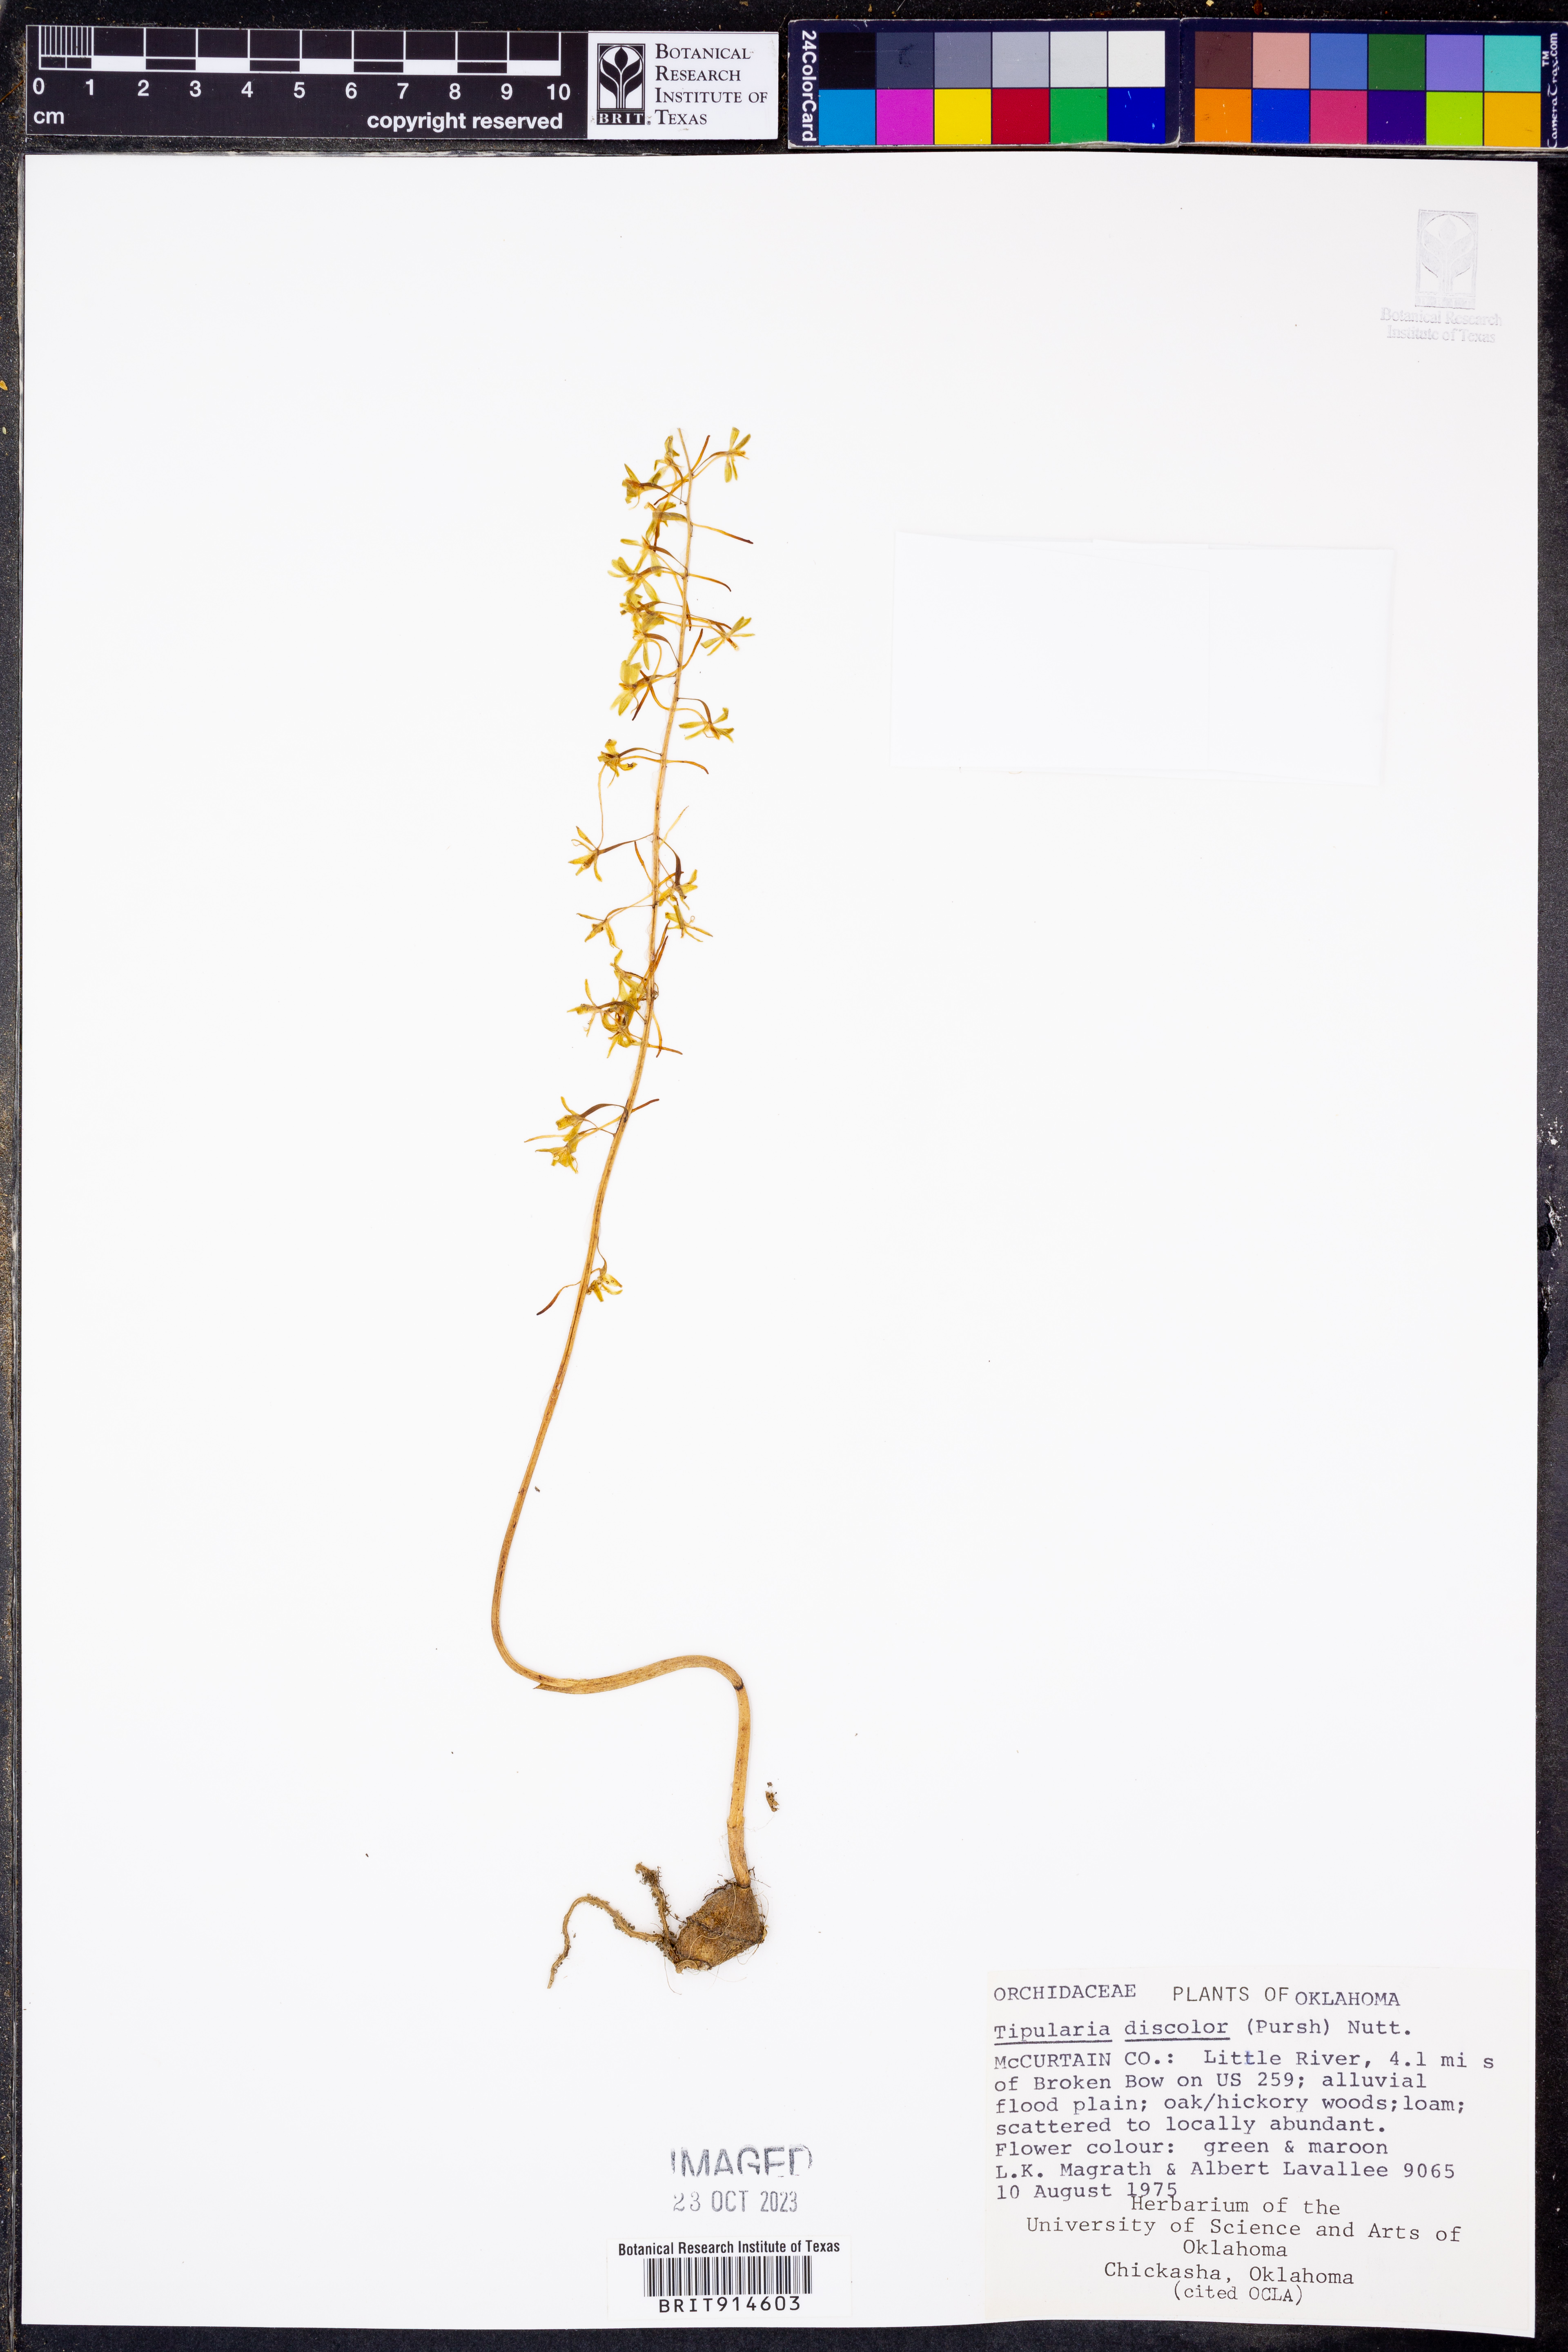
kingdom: Plantae
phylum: Tracheophyta
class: Liliopsida
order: Asparagales
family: Orchidaceae
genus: Tipularia
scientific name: Tipularia discolor
